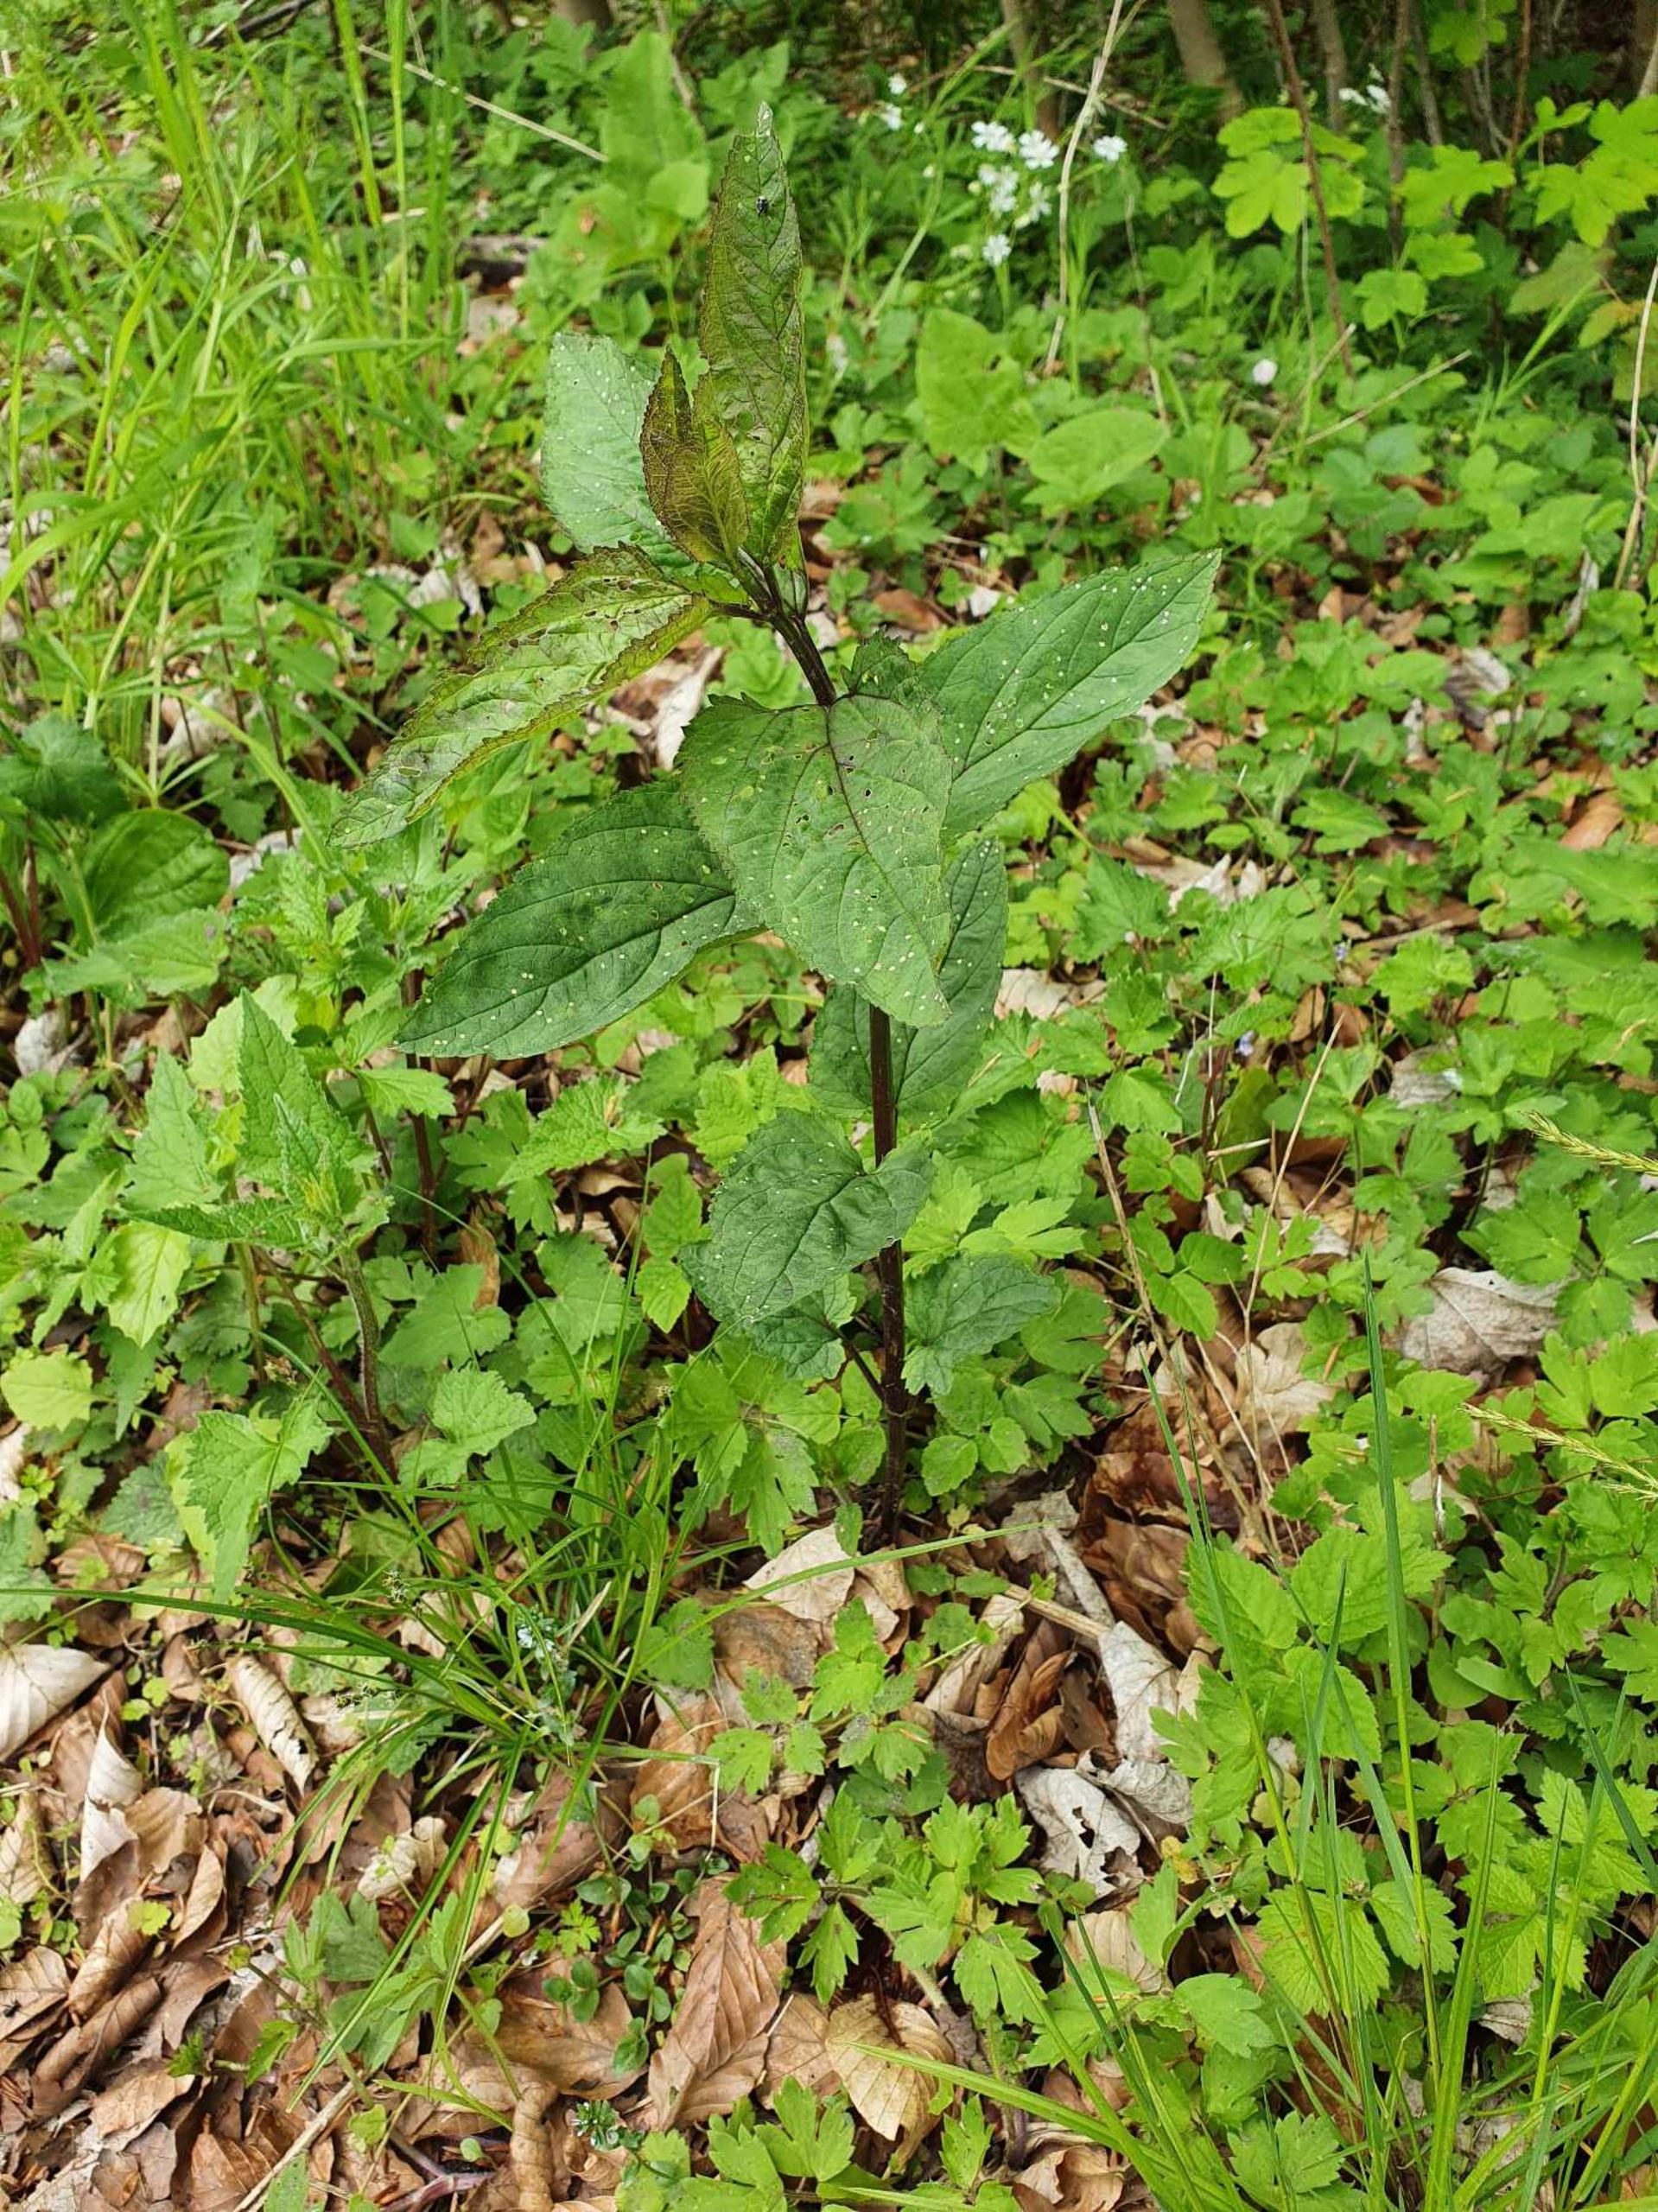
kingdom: Plantae
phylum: Tracheophyta
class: Magnoliopsida
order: Lamiales
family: Scrophulariaceae
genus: Scrophularia
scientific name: Scrophularia nodosa
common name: Knoldet brunrod
